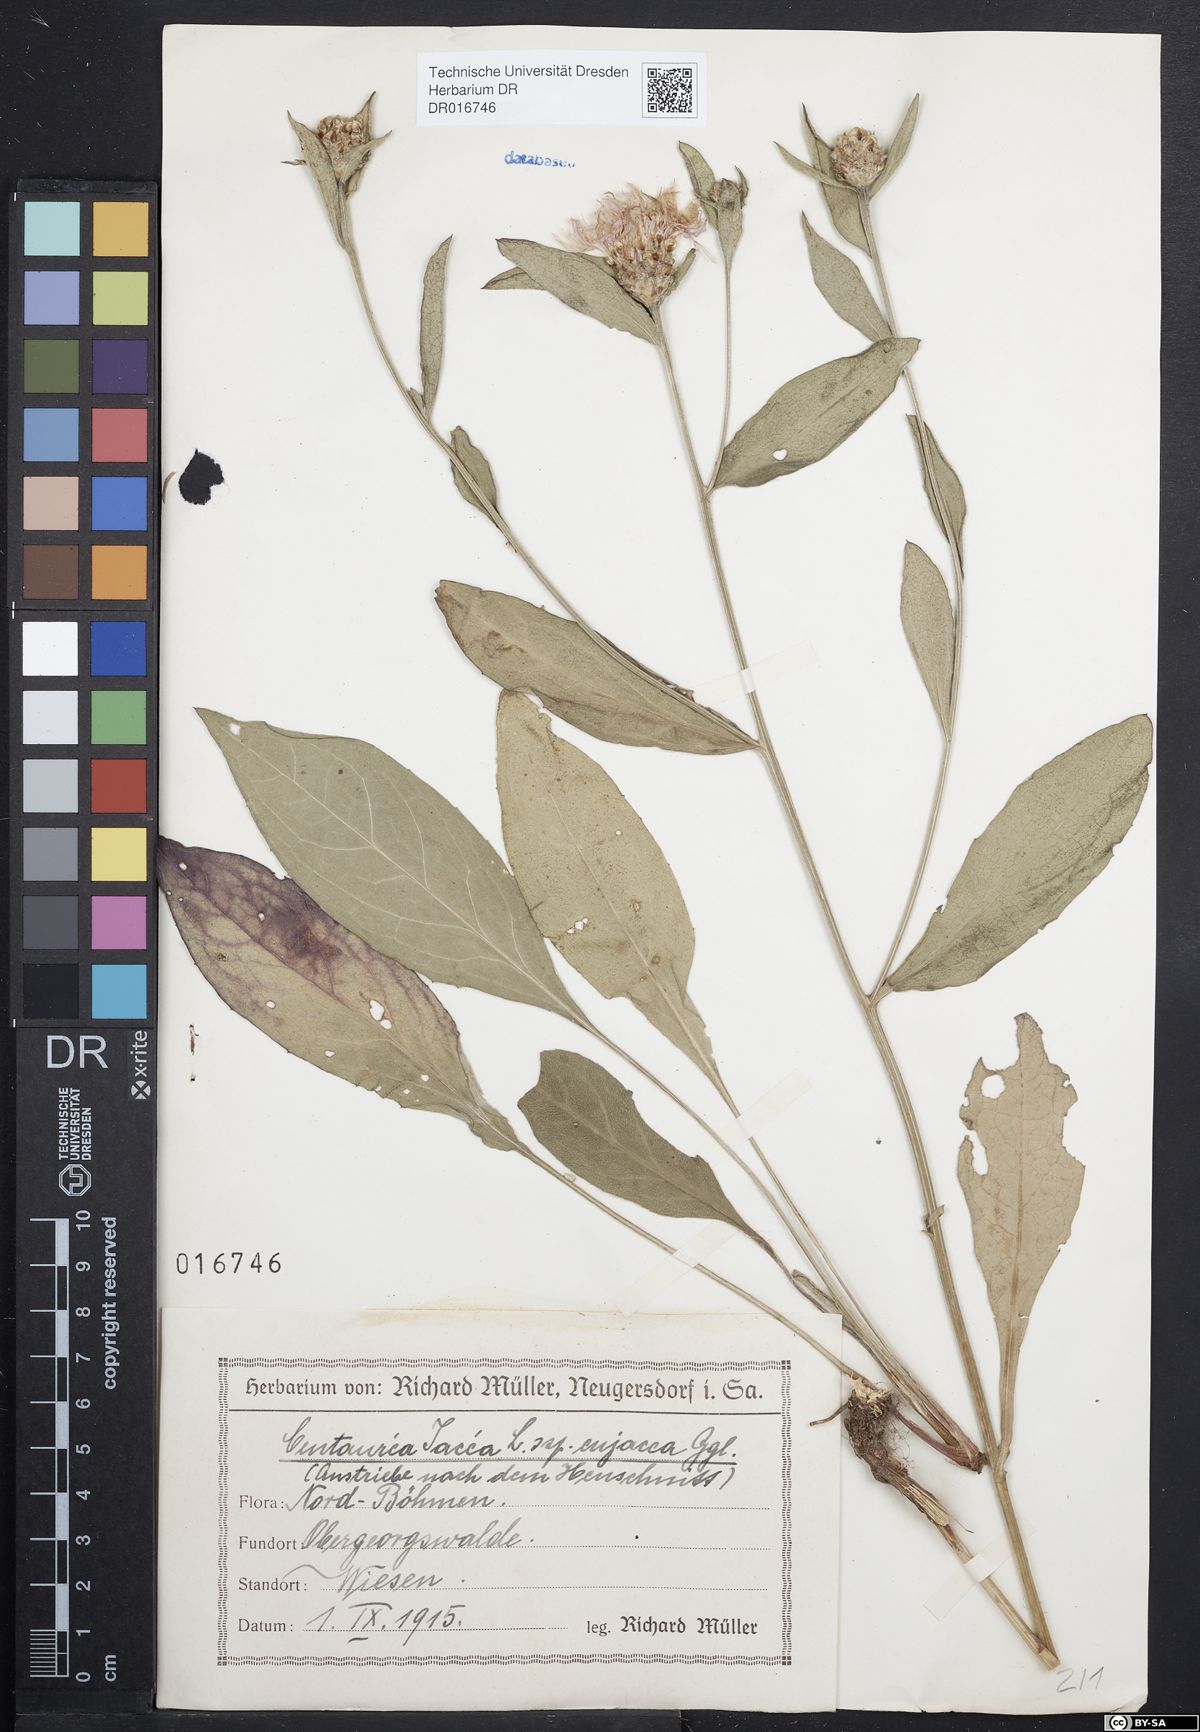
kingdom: Plantae
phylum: Tracheophyta
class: Magnoliopsida
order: Asterales
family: Asteraceae
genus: Centaurea
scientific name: Centaurea jacea
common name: Brown knapweed
